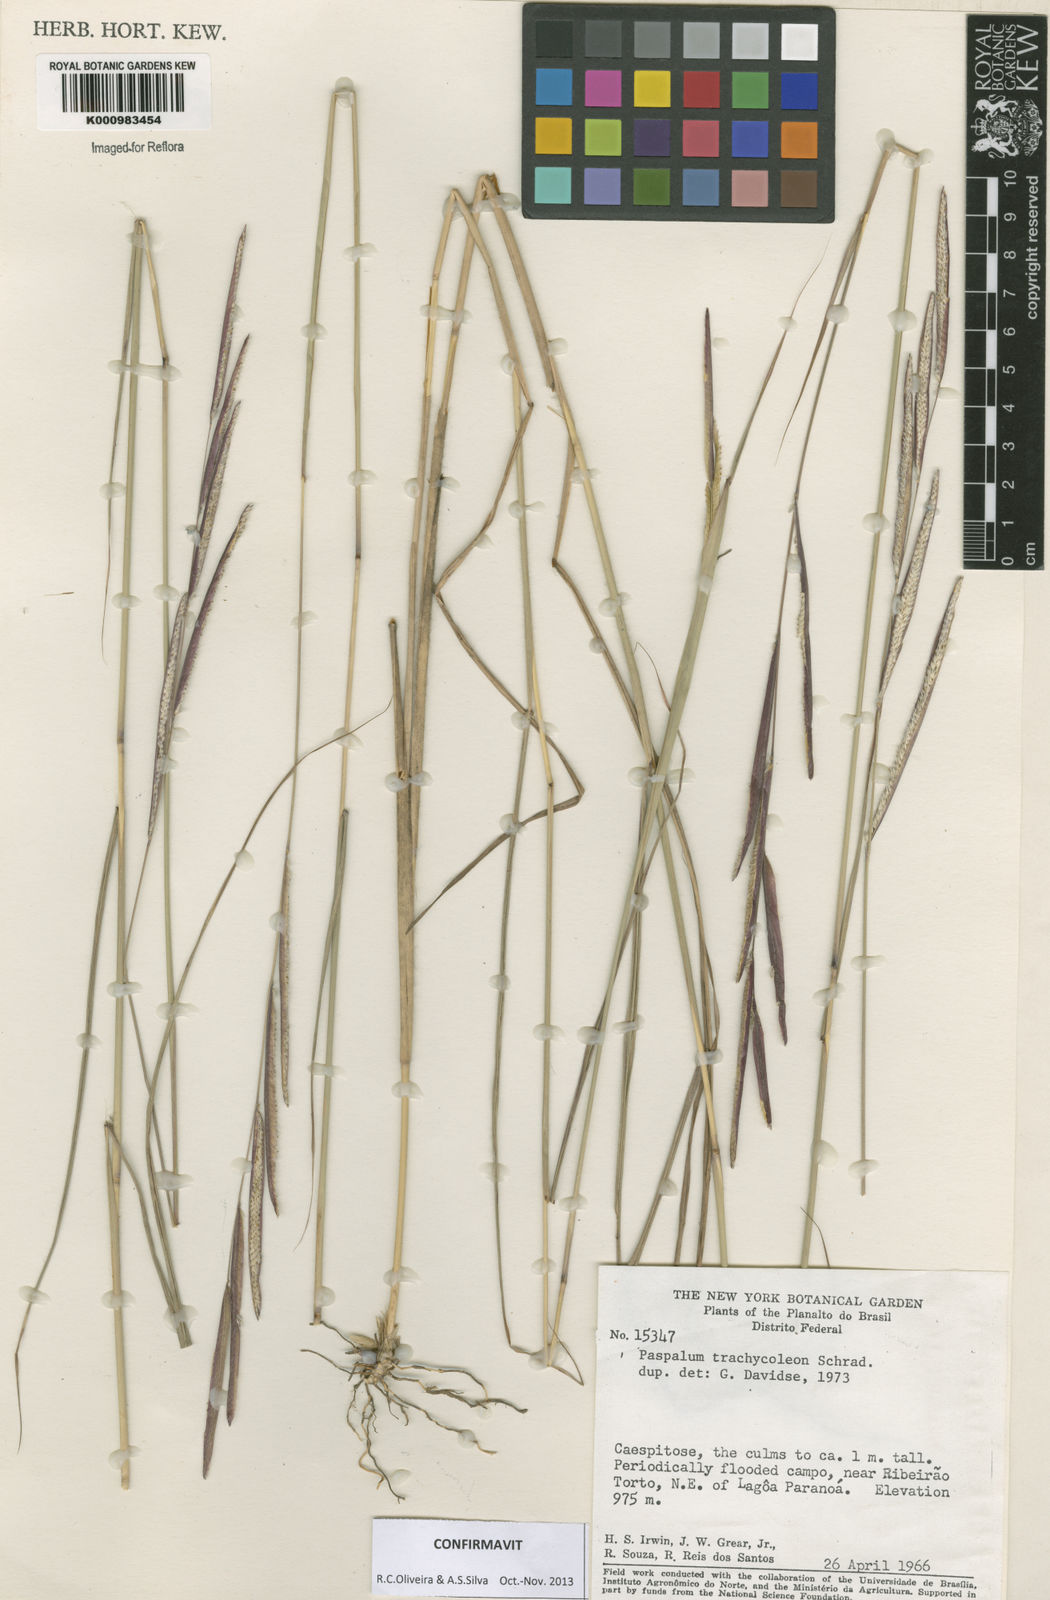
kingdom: Plantae
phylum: Tracheophyta
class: Liliopsida
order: Poales
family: Poaceae
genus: Paspalum
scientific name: Paspalum trachycoleon
